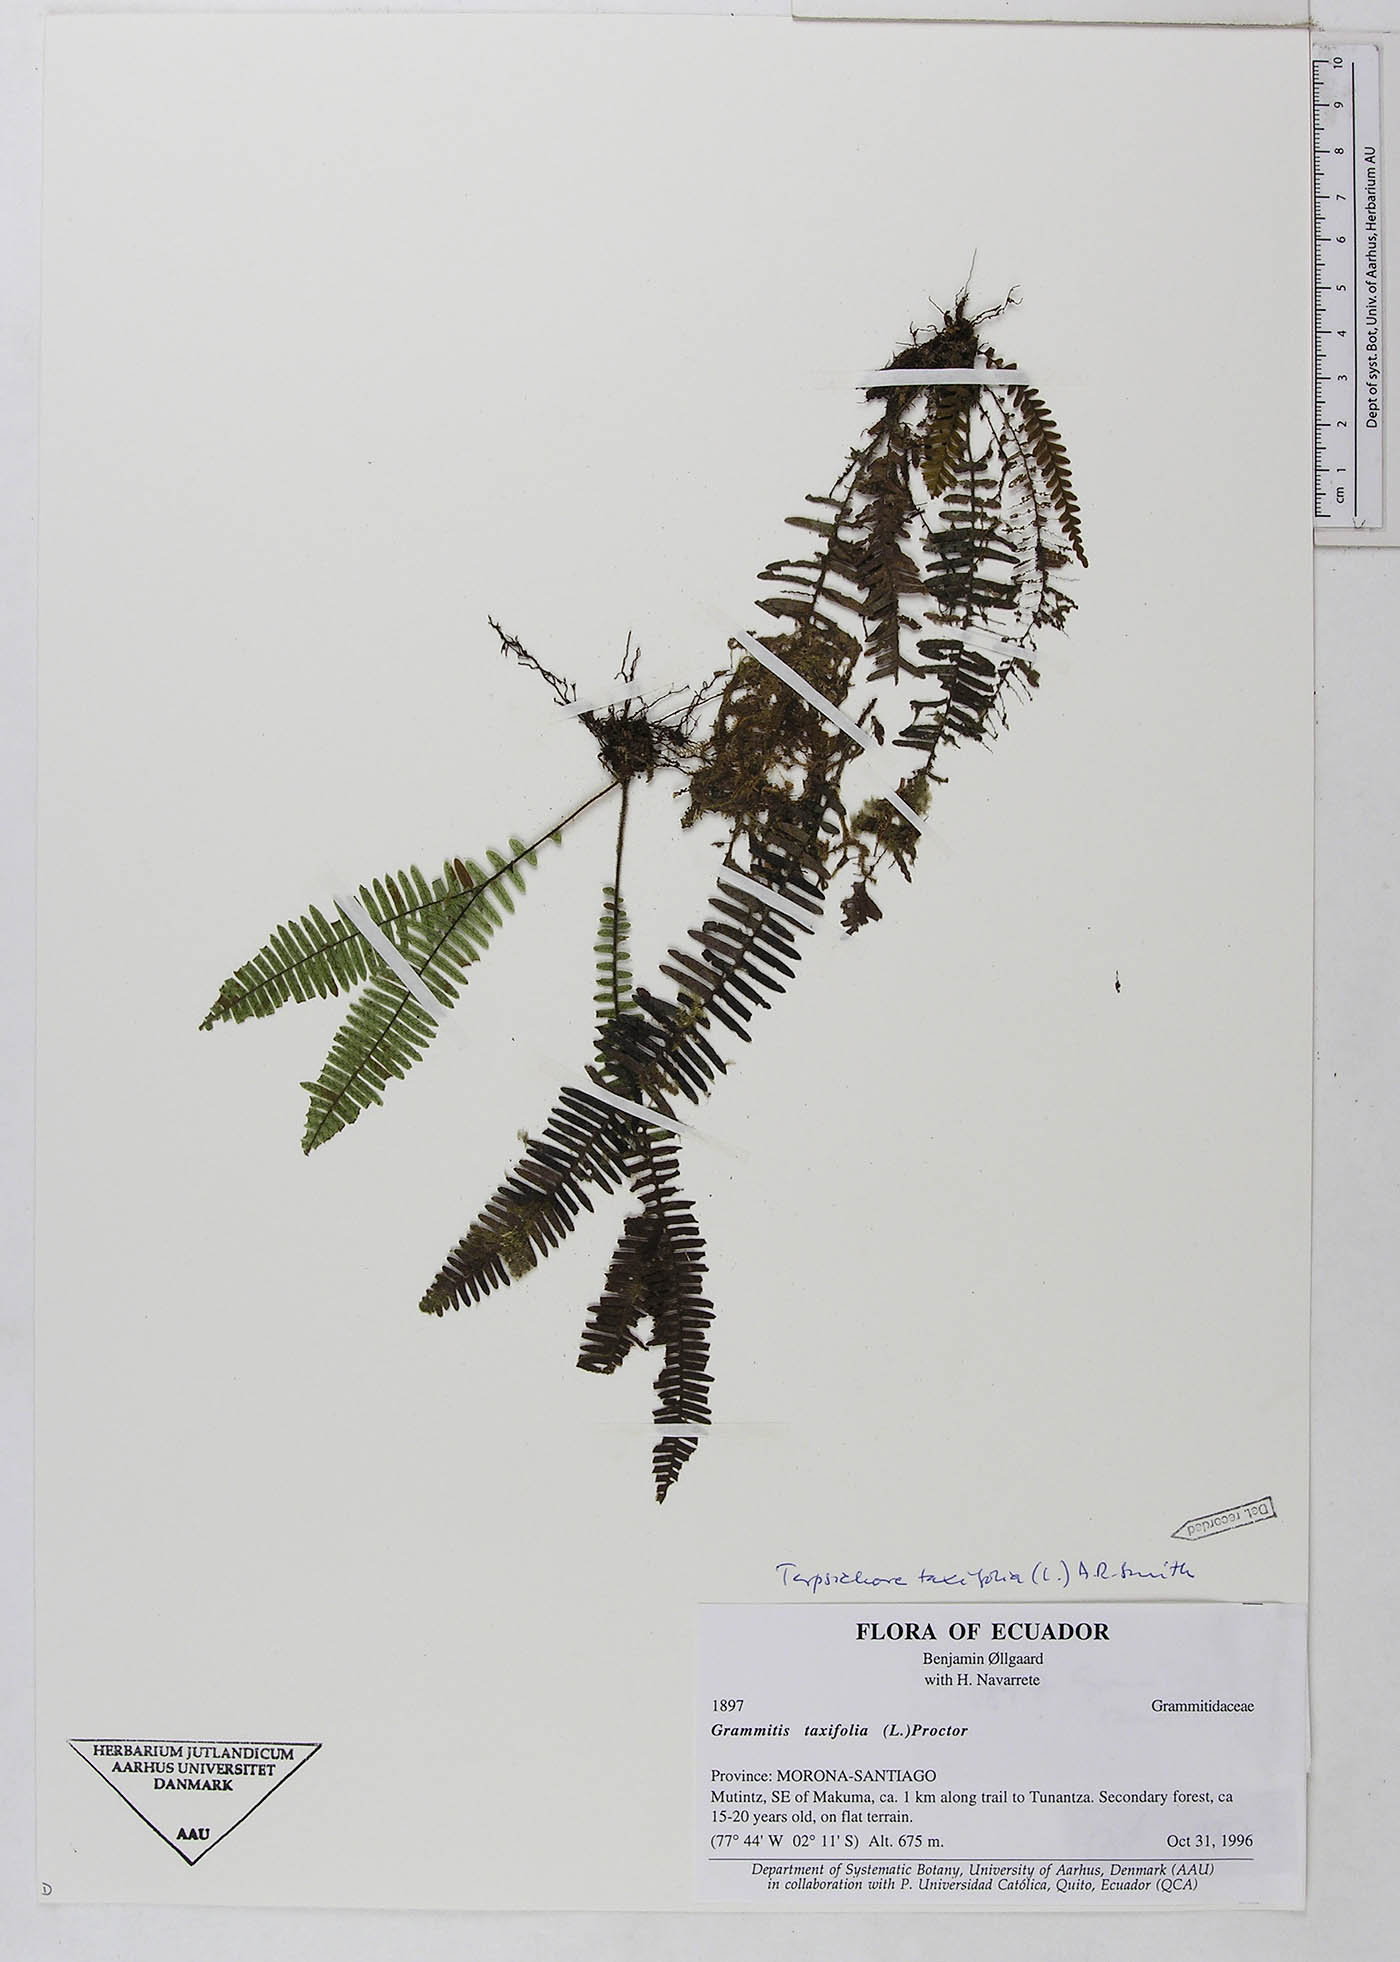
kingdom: Plantae
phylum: Tracheophyta
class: Polypodiopsida
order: Polypodiales
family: Polypodiaceae
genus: Mycopteris
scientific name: Mycopteris taxifolia
